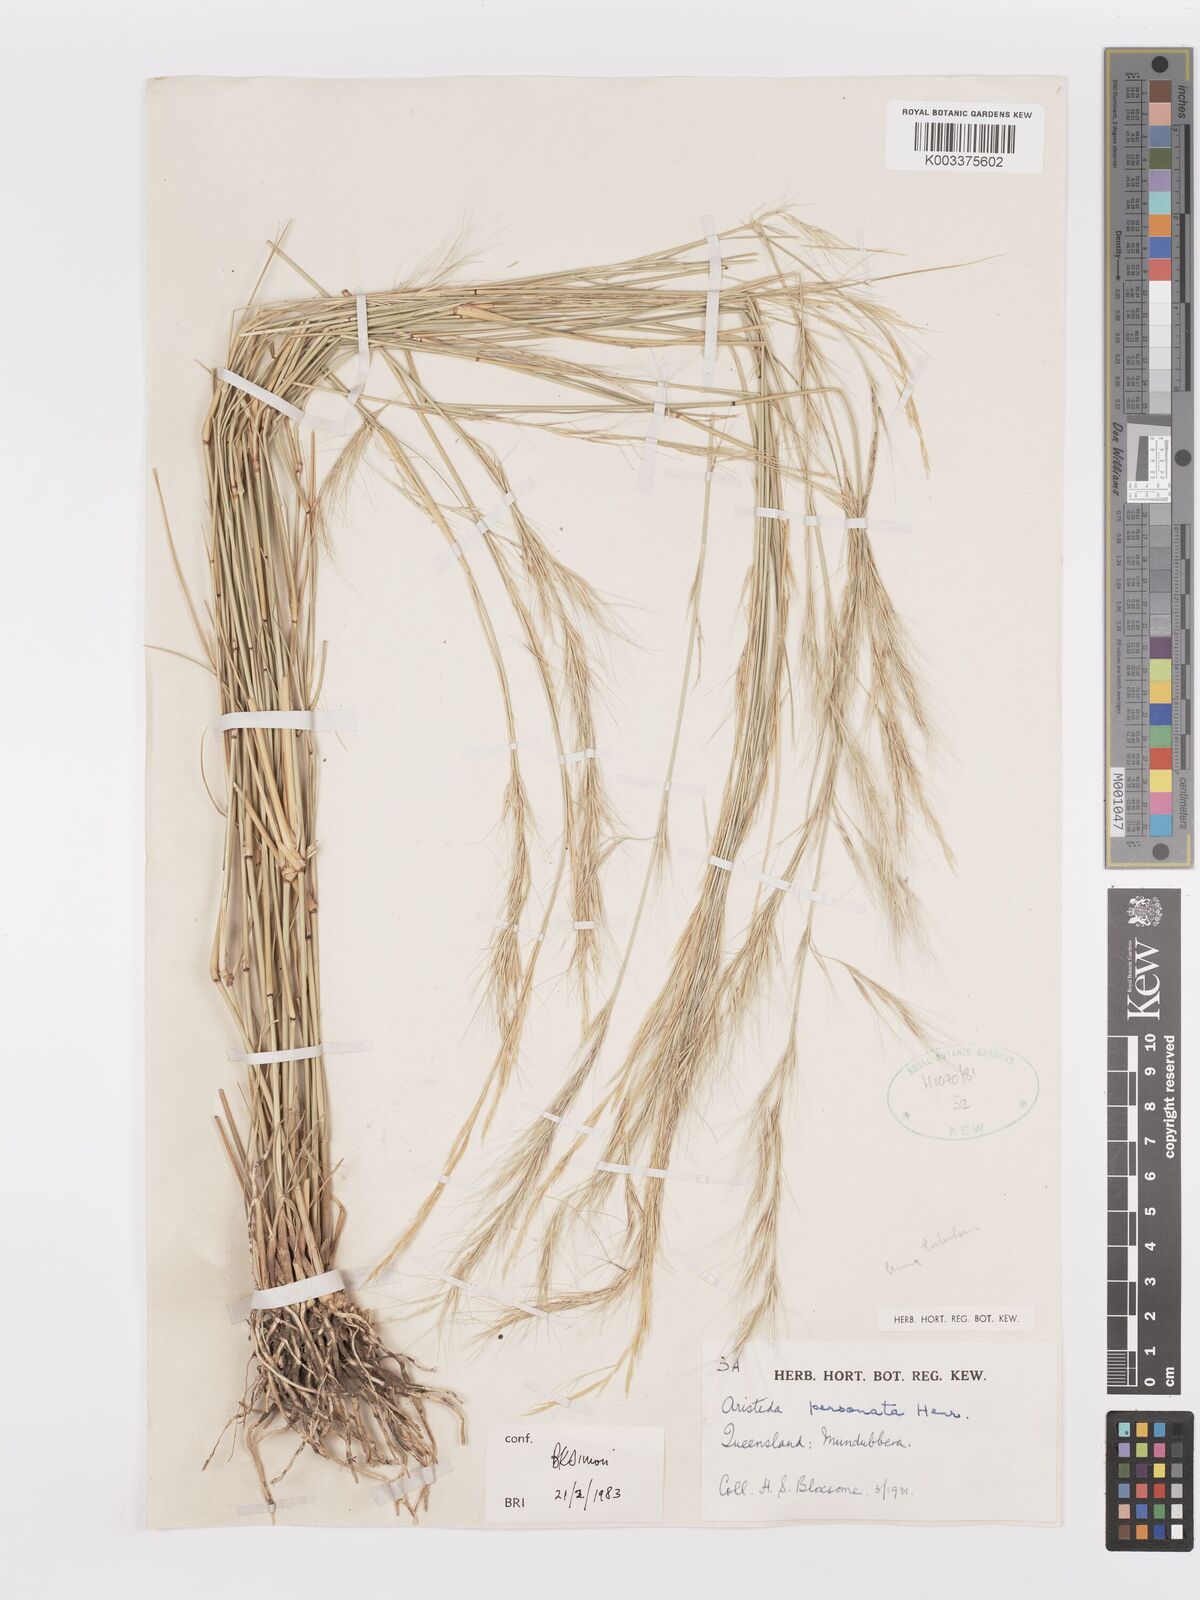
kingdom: Plantae
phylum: Tracheophyta
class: Liliopsida
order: Poales
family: Poaceae
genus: Aristida
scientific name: Aristida personata
